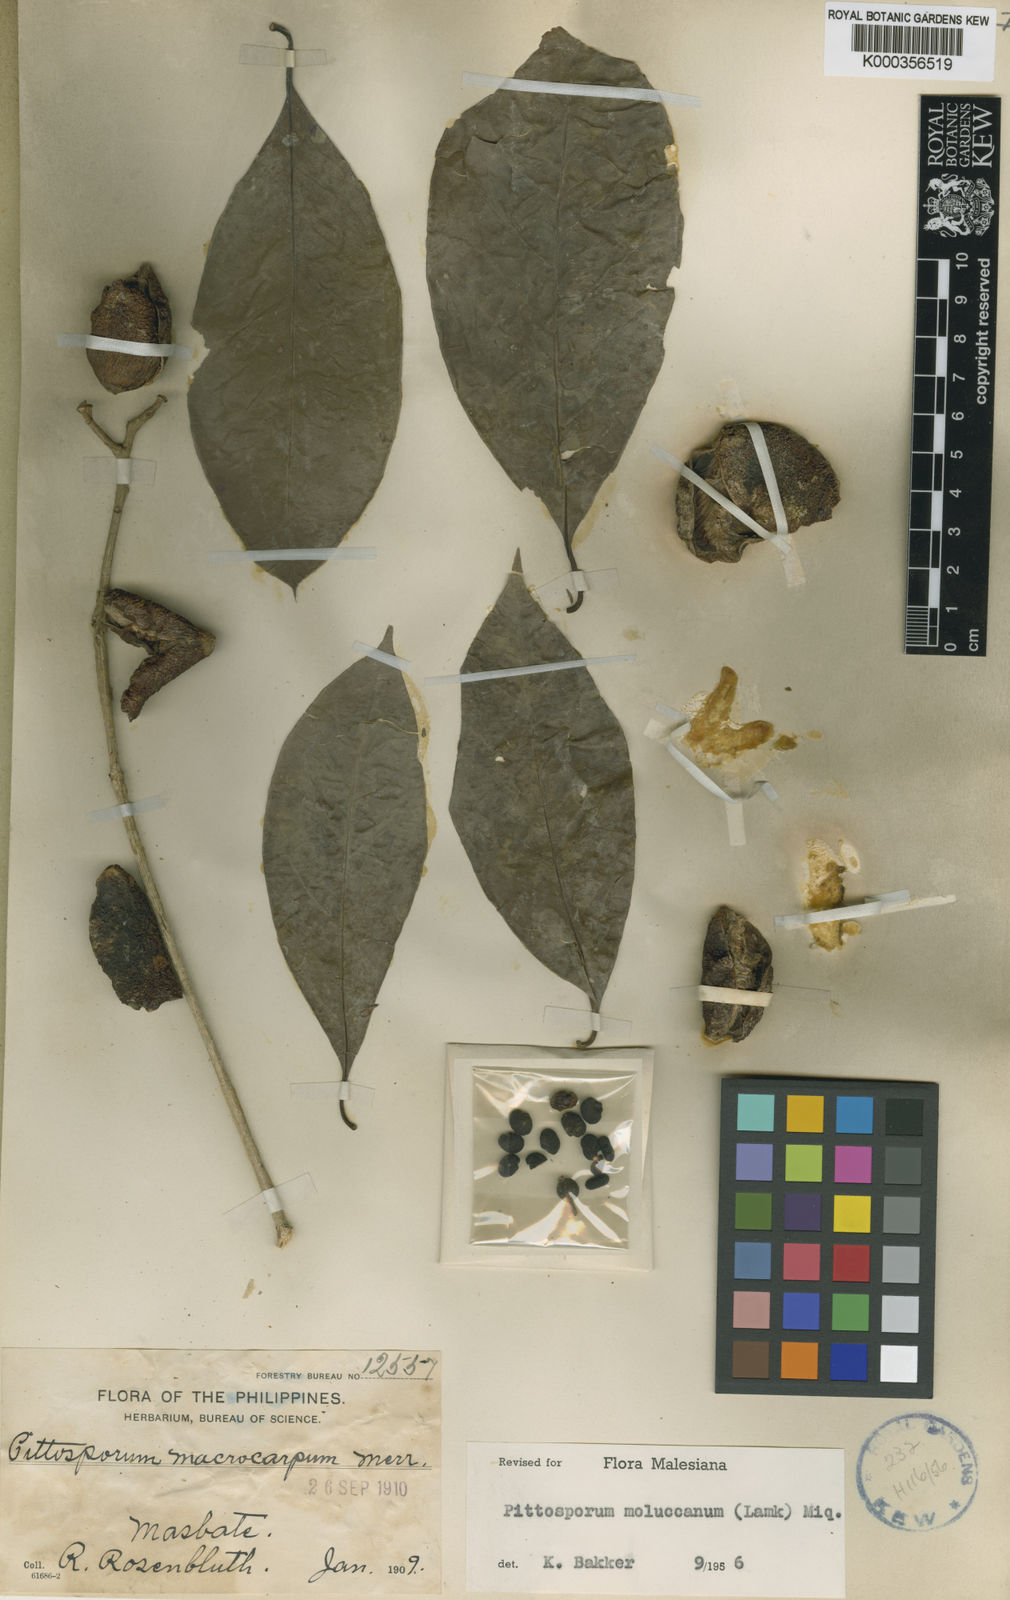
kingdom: Plantae
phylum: Tracheophyta
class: Magnoliopsida
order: Apiales
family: Pittosporaceae
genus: Pittosporum
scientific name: Pittosporum moluccanum
